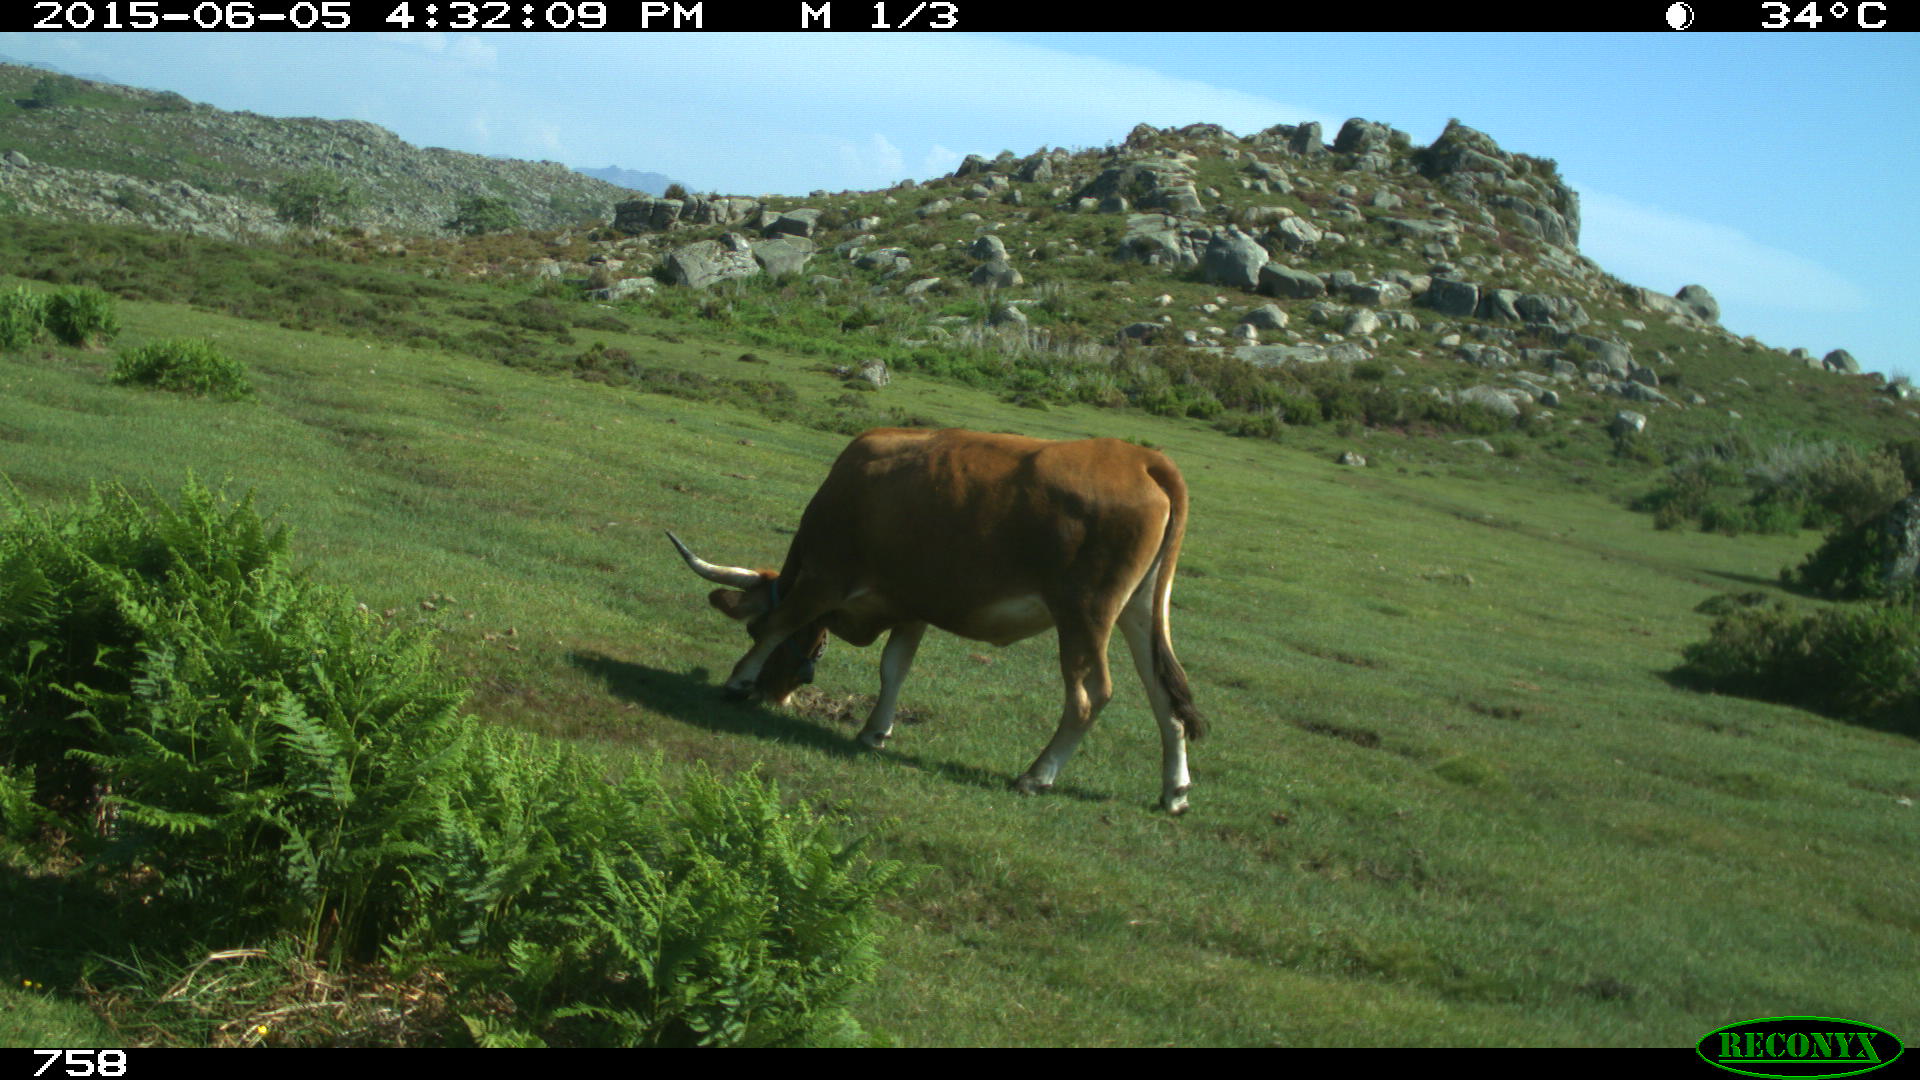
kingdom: Animalia
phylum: Chordata
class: Mammalia
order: Artiodactyla
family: Bovidae
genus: Bos
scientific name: Bos taurus
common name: Domesticated cattle
